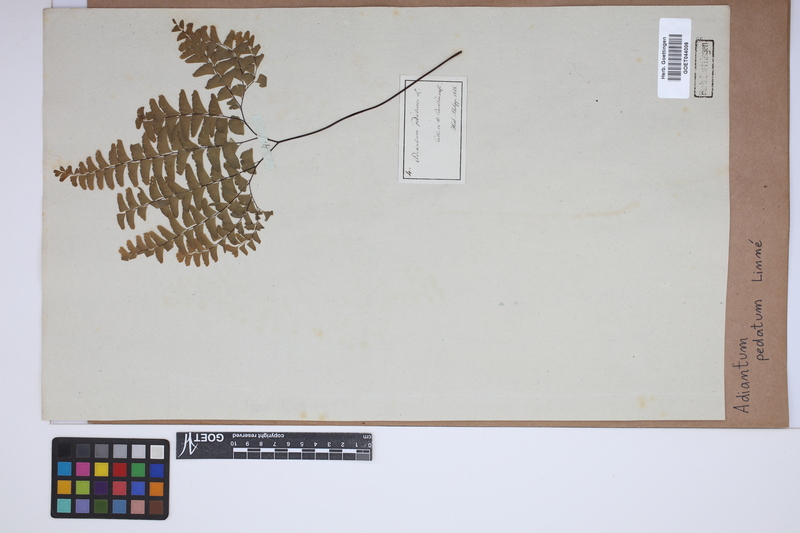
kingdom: Plantae
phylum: Tracheophyta
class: Polypodiopsida
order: Polypodiales
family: Pteridaceae
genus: Adiantum
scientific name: Adiantum pedatum
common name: Five-finger fern
